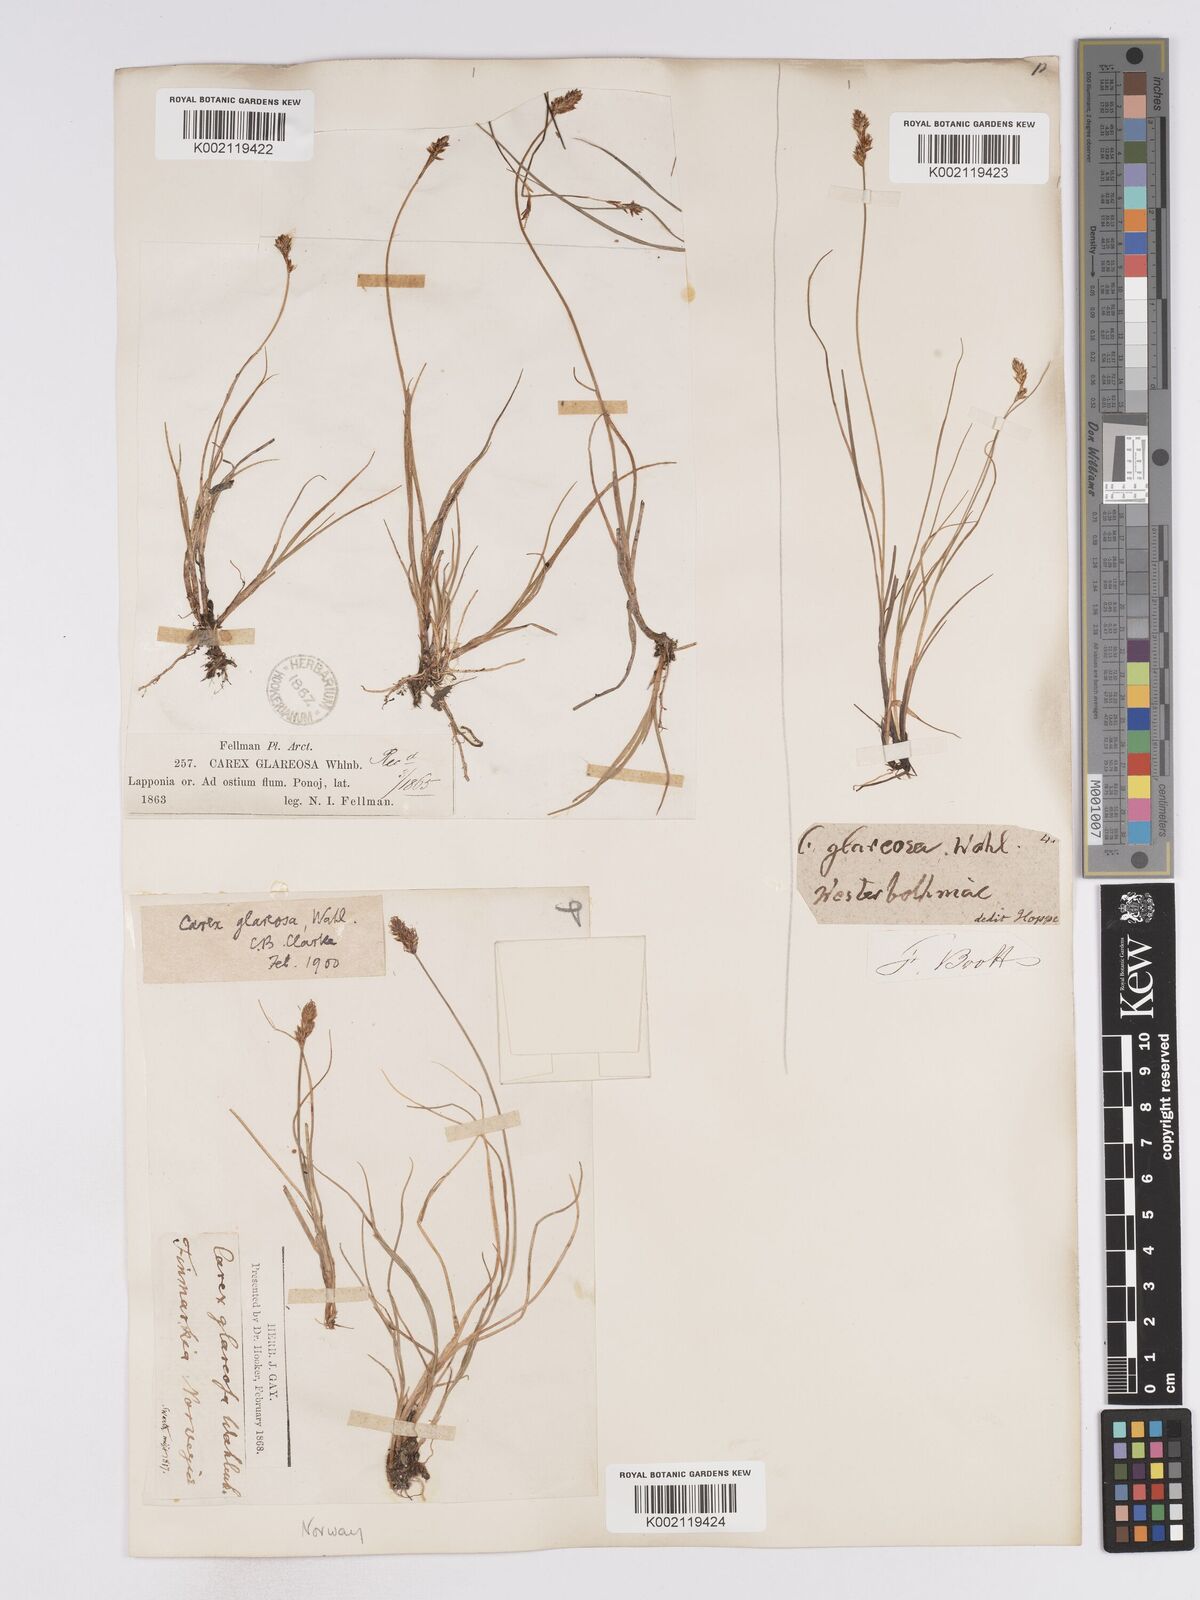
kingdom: Plantae
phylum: Tracheophyta
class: Liliopsida
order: Poales
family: Cyperaceae
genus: Carex
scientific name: Carex glareosa
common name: Clustered sedge
